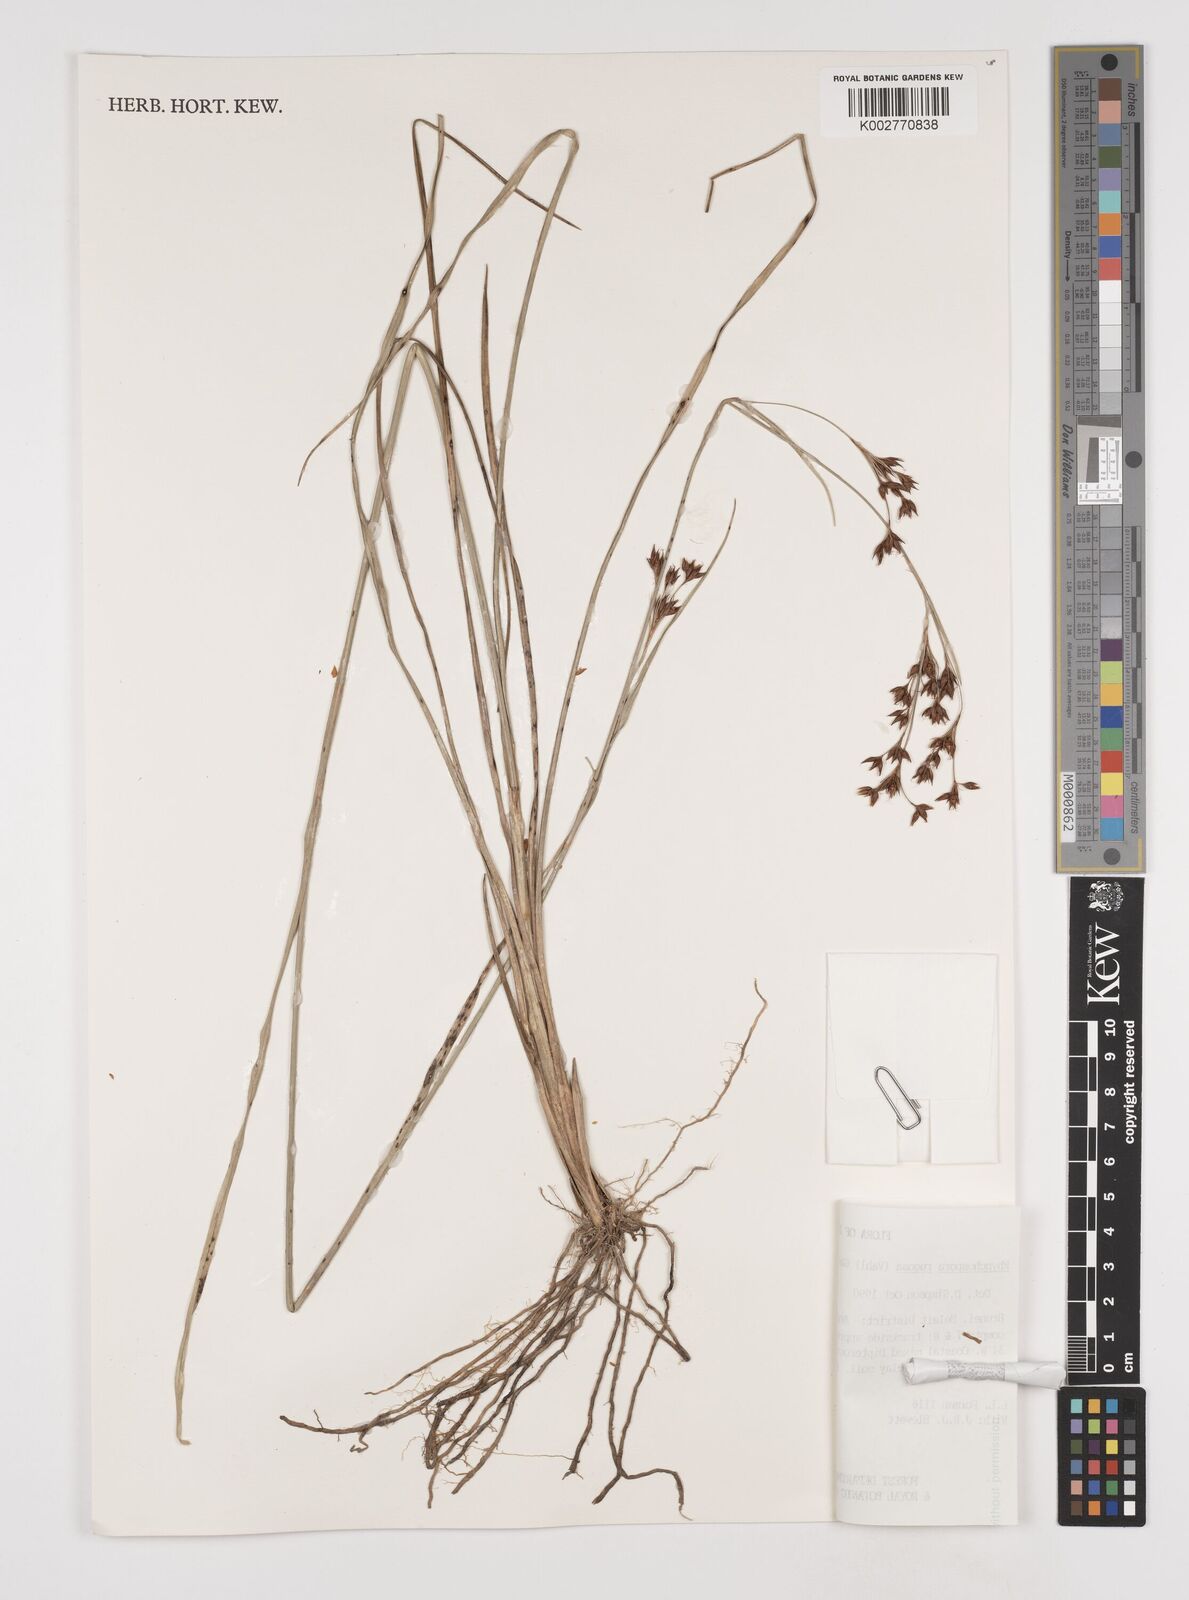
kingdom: Plantae
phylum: Tracheophyta
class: Liliopsida
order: Poales
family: Cyperaceae
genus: Rhynchospora
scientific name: Rhynchospora rugosa
